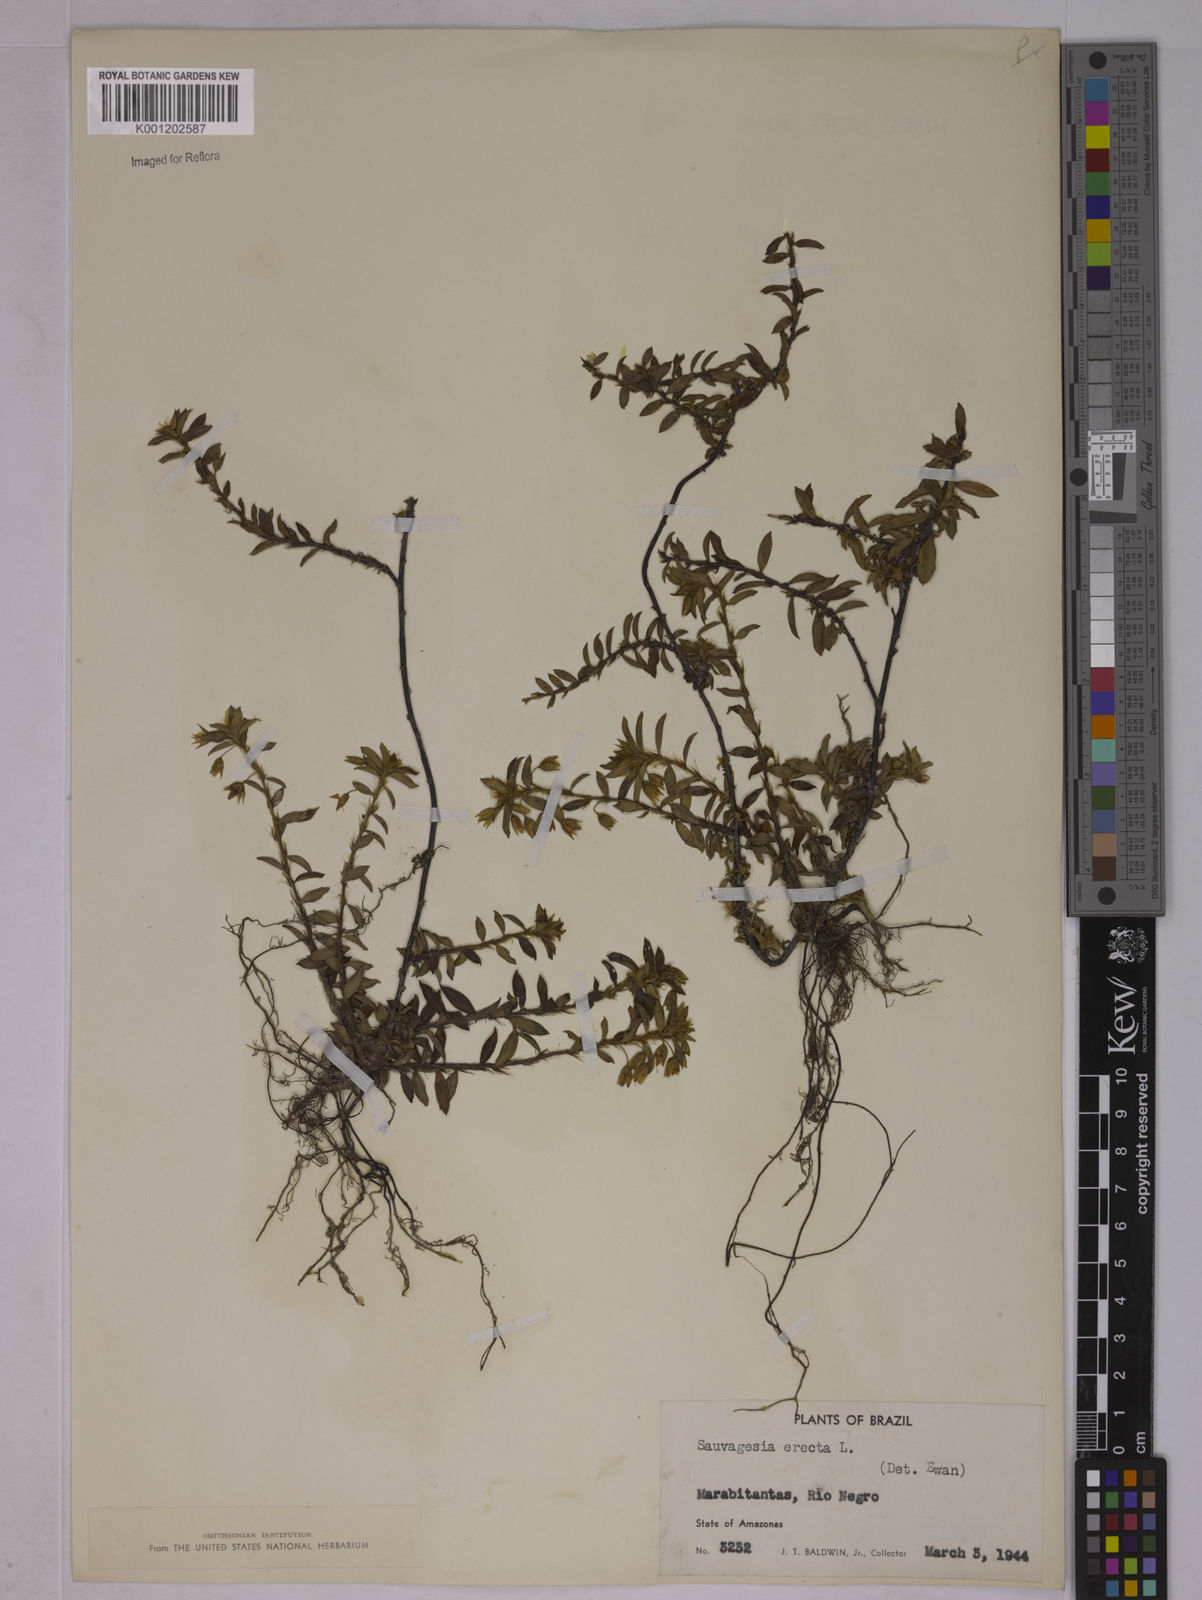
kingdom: Plantae
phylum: Tracheophyta
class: Magnoliopsida
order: Malpighiales
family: Ochnaceae
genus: Sauvagesia
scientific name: Sauvagesia erecta
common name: Creole tea
